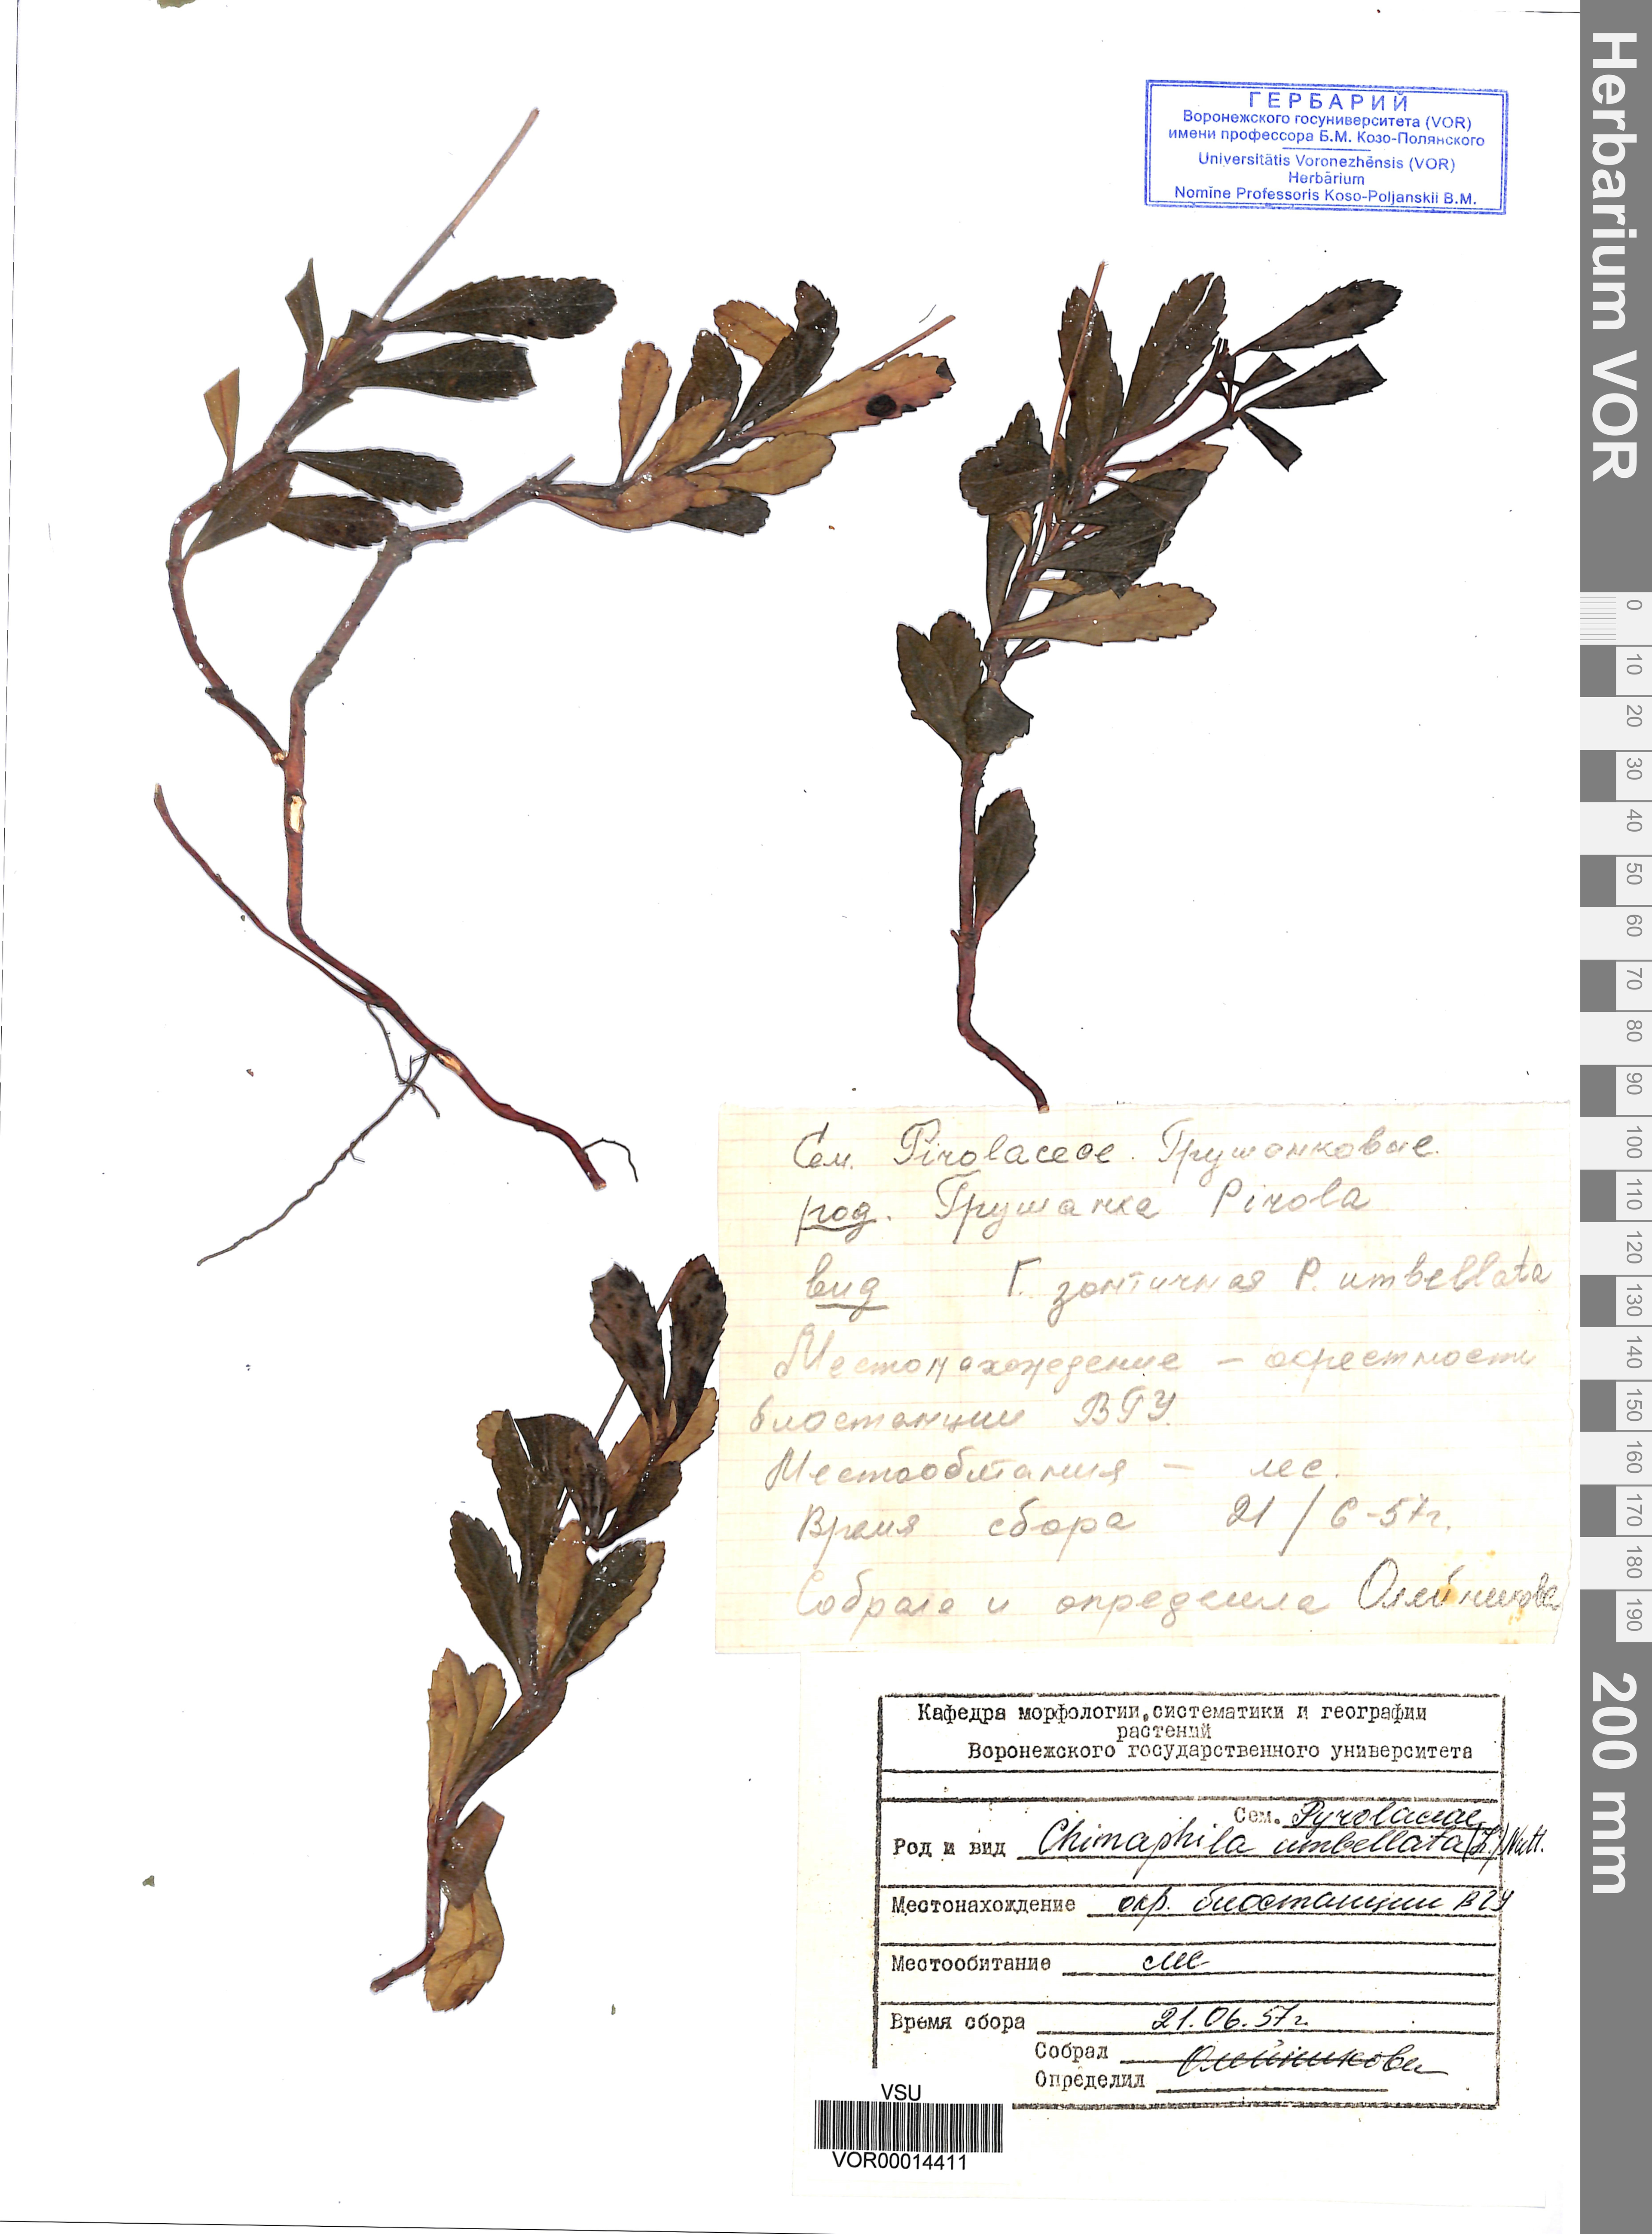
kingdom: Plantae
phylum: Tracheophyta
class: Magnoliopsida
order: Ericales
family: Ericaceae
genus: Chimaphila
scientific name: Chimaphila umbellata
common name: Pipsissewa
